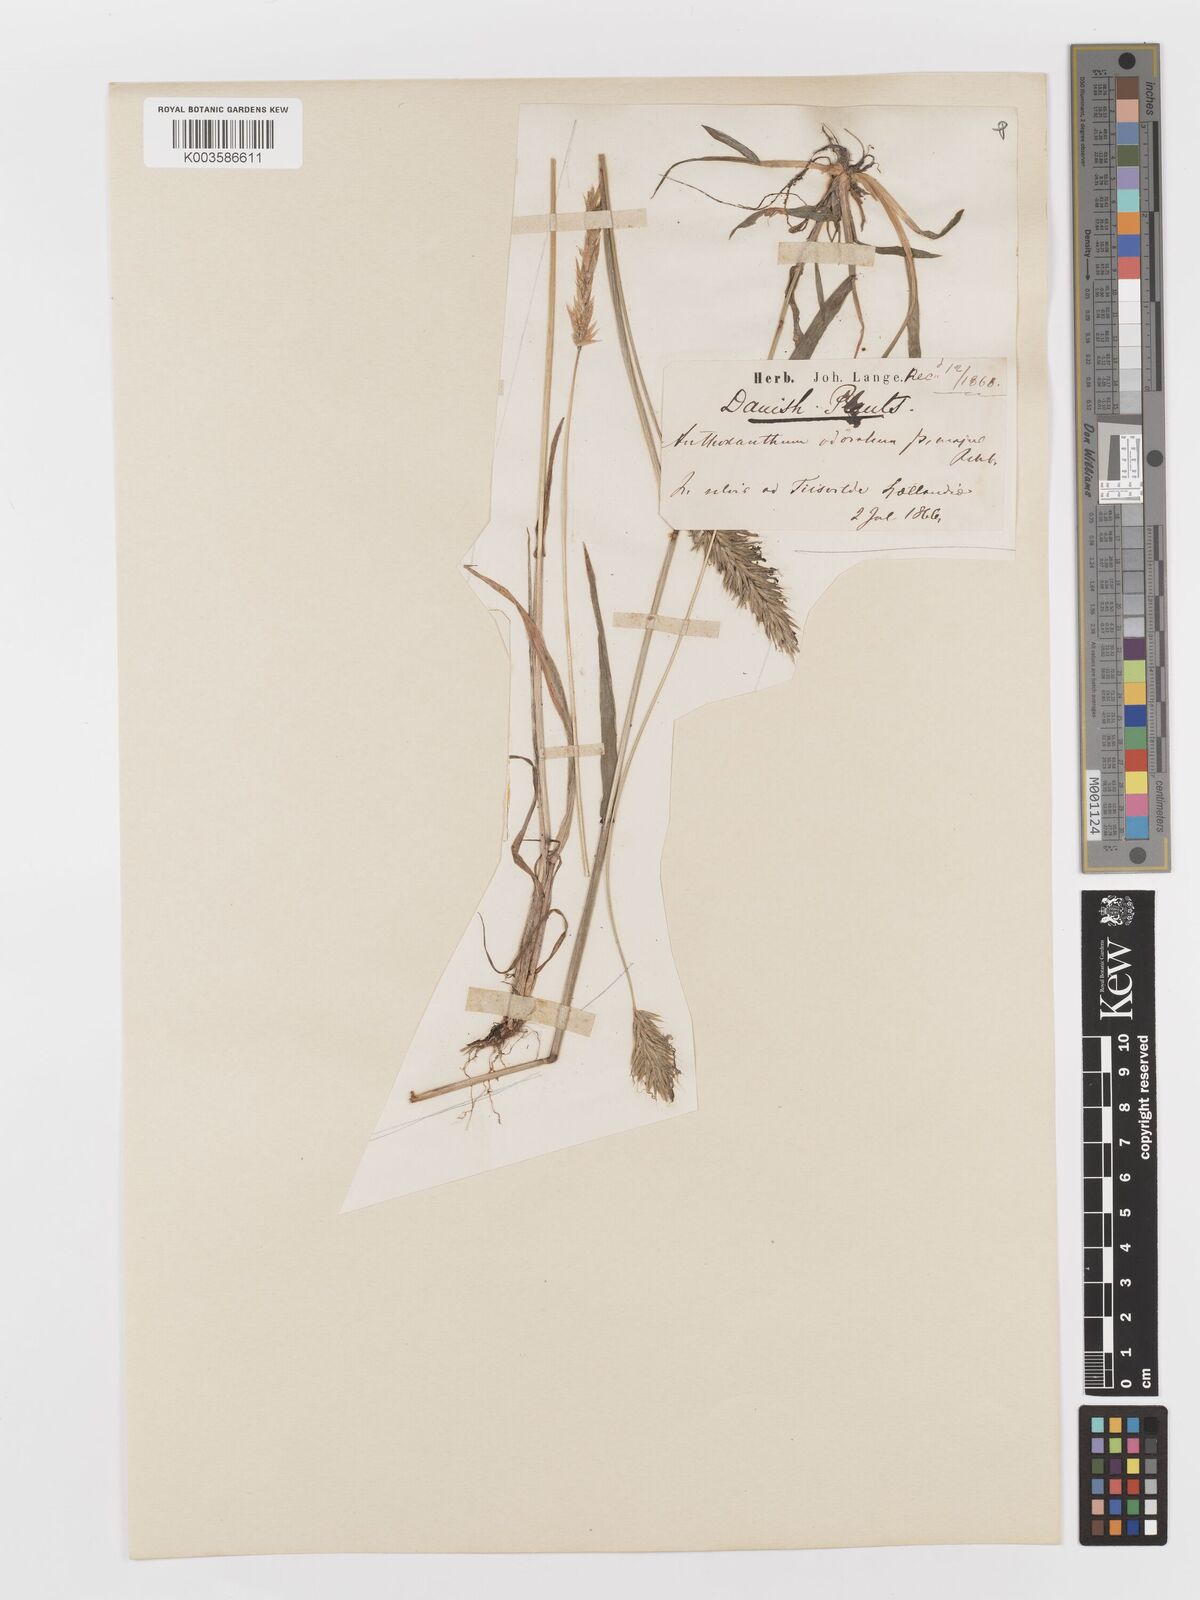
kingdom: Plantae
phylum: Tracheophyta
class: Liliopsida
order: Poales
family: Poaceae
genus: Anthoxanthum
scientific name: Anthoxanthum odoratum
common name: Sweet vernalgrass
